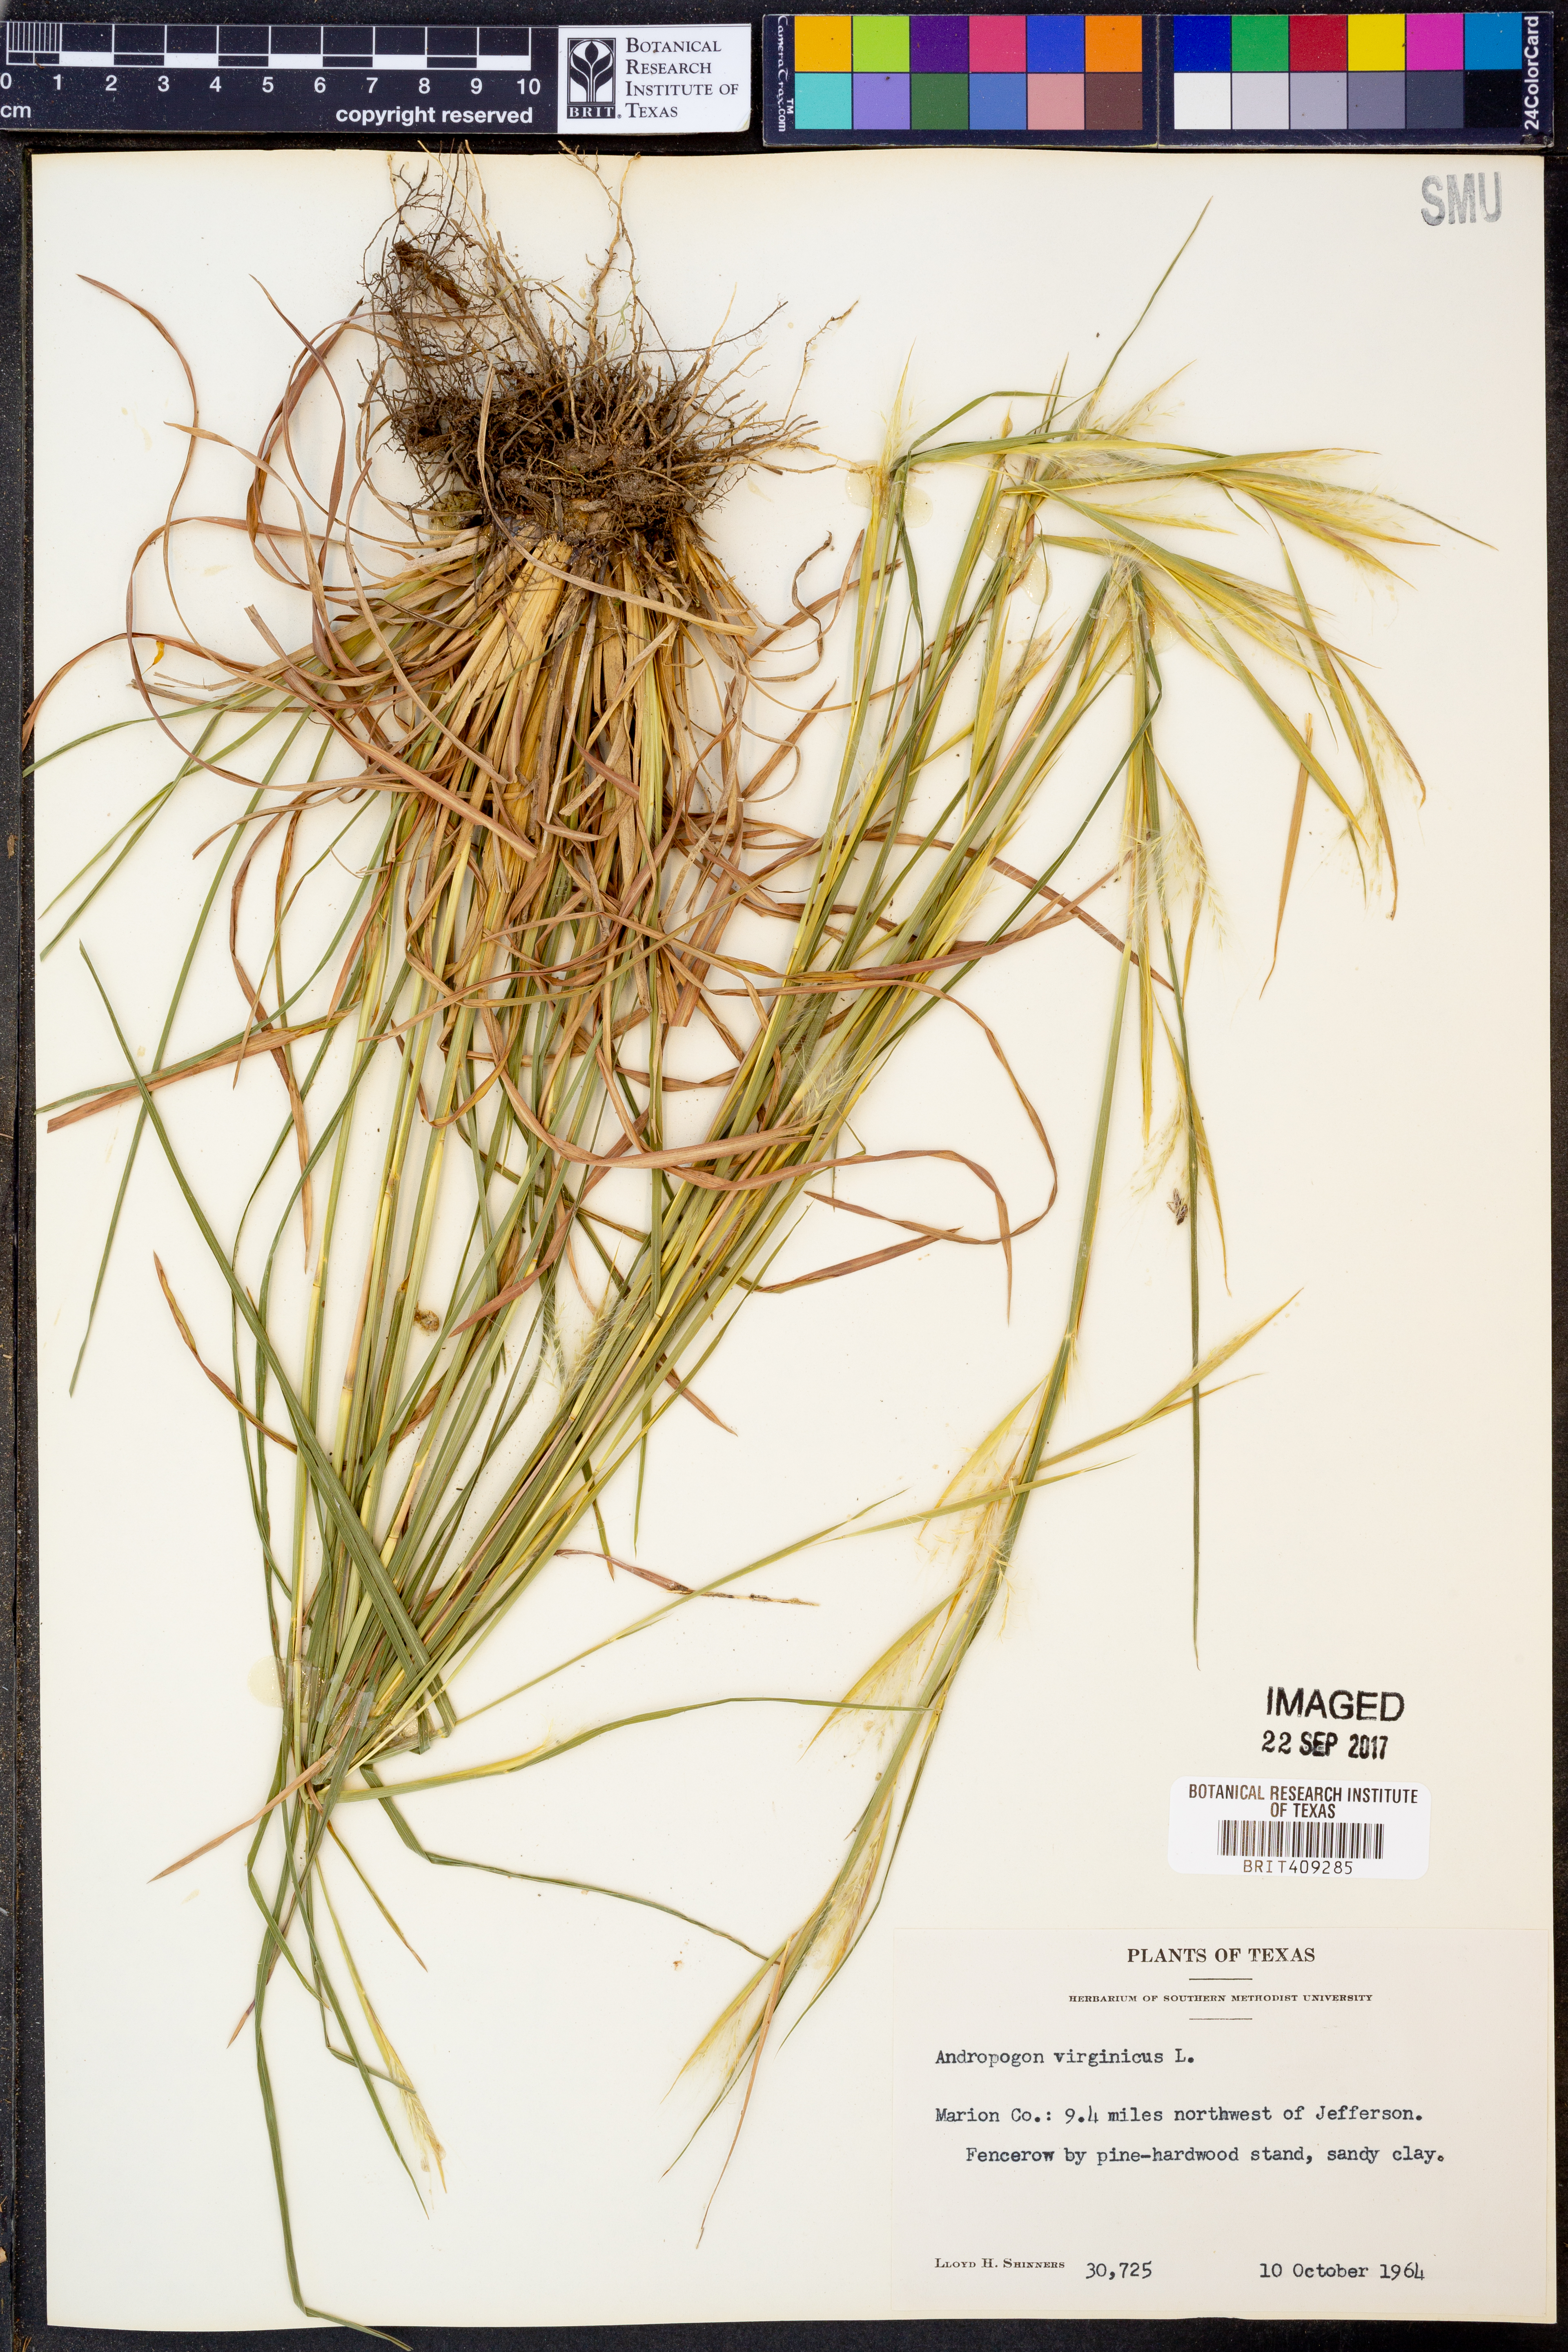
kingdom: Plantae
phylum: Tracheophyta
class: Liliopsida
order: Poales
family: Poaceae
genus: Andropogon
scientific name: Andropogon virginicus
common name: Broomsedge bluestem
